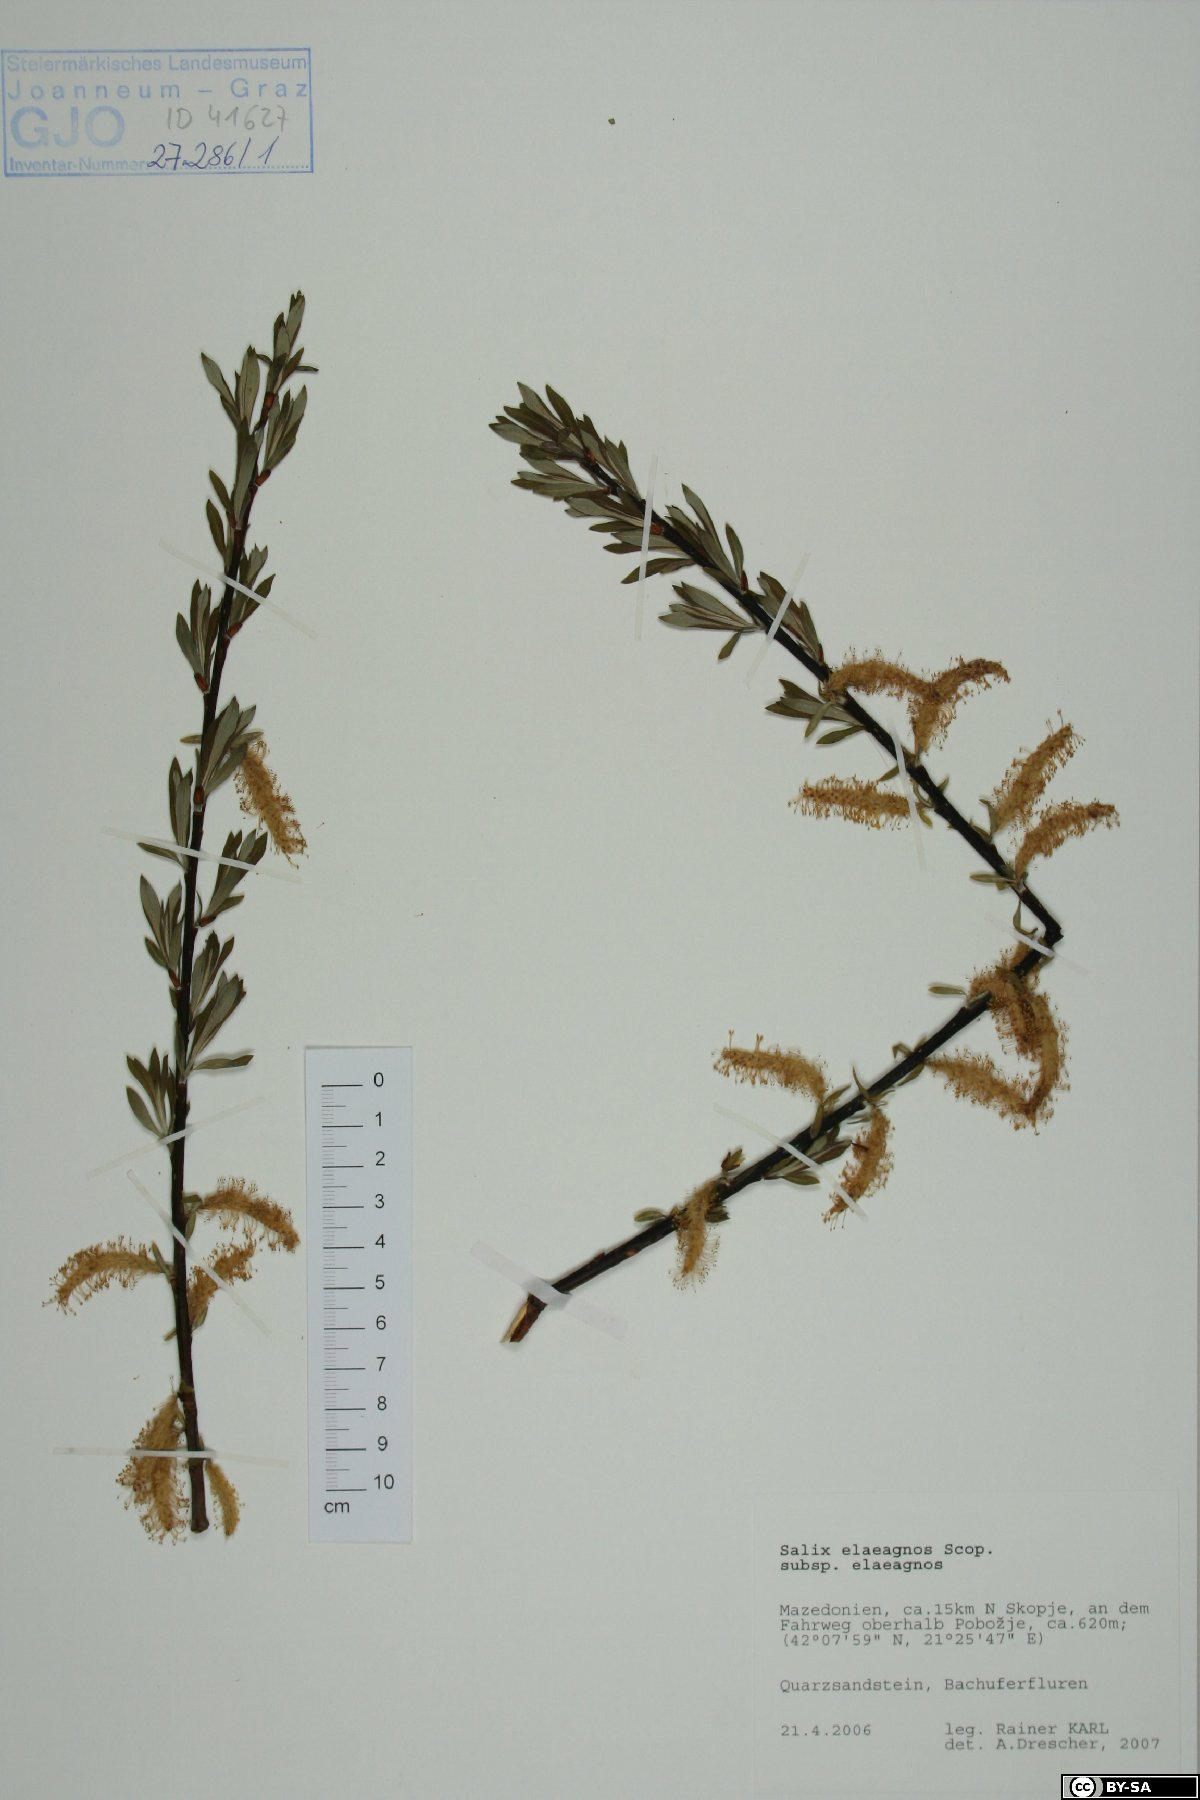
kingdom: Plantae
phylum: Tracheophyta
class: Magnoliopsida
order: Malpighiales
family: Salicaceae
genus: Salix
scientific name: Salix eleagnos
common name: Elaeagnus willow
